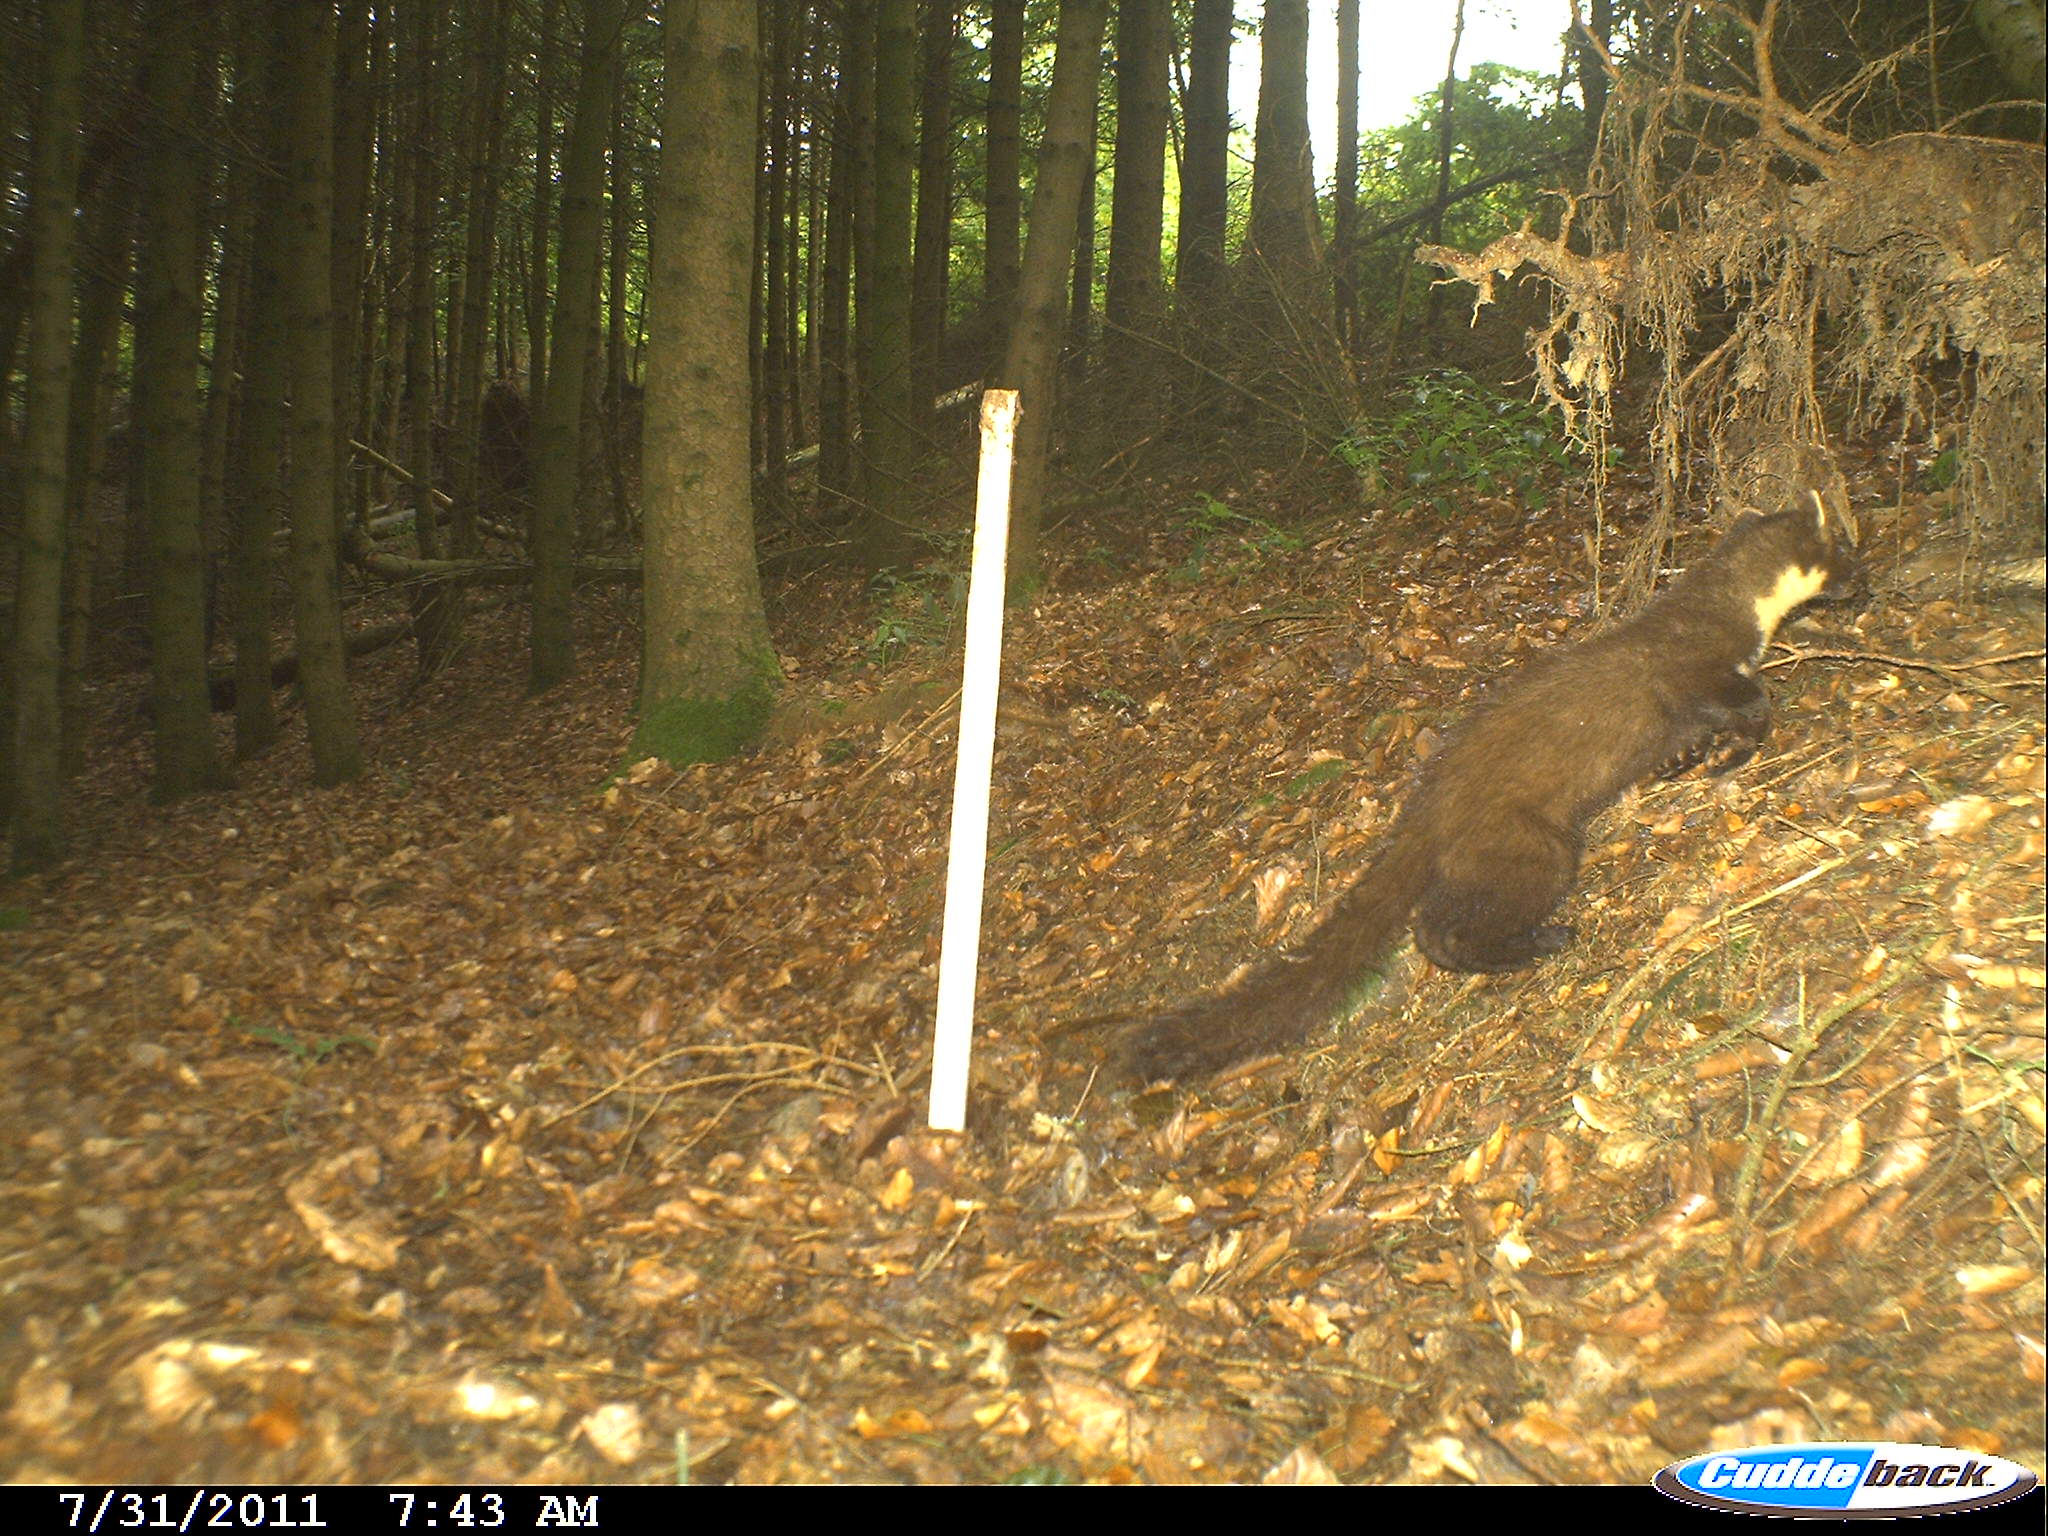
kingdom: Animalia
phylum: Chordata
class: Mammalia
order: Carnivora
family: Mustelidae
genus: Martes
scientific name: Martes martes
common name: European pine marten
